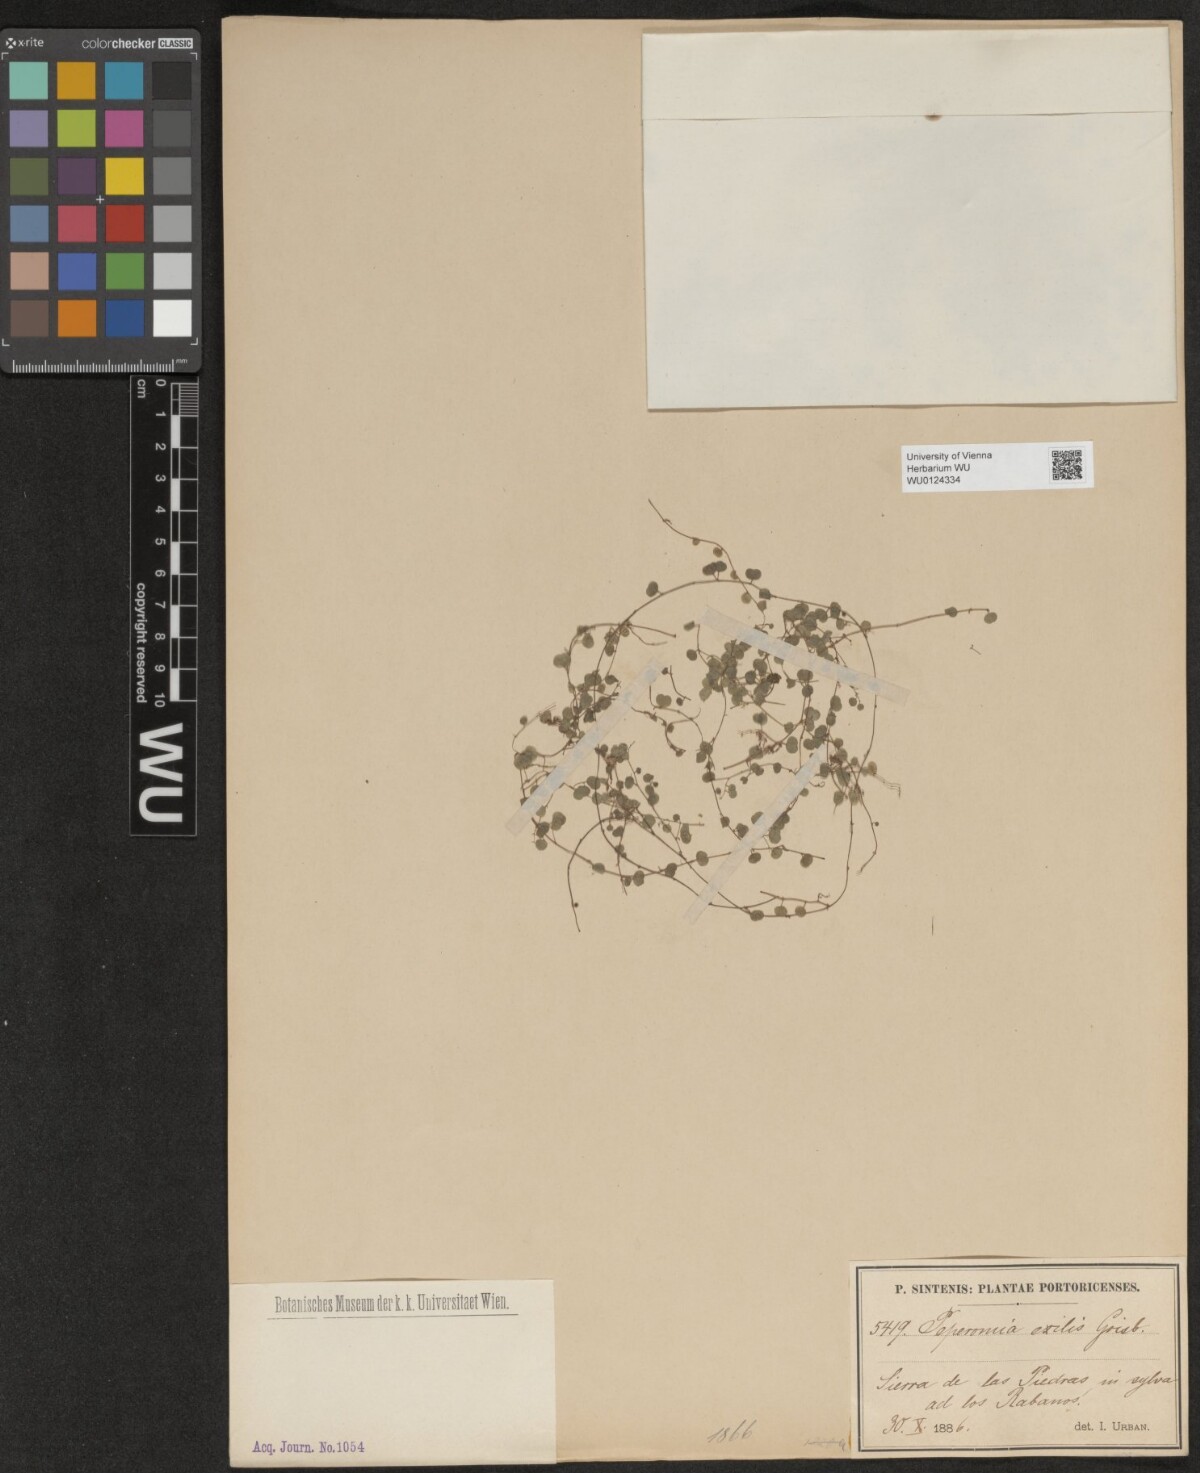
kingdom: Plantae
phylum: Tracheophyta
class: Magnoliopsida
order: Piperales
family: Piperaceae
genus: Peperomia
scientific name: Peperomia emarginella
